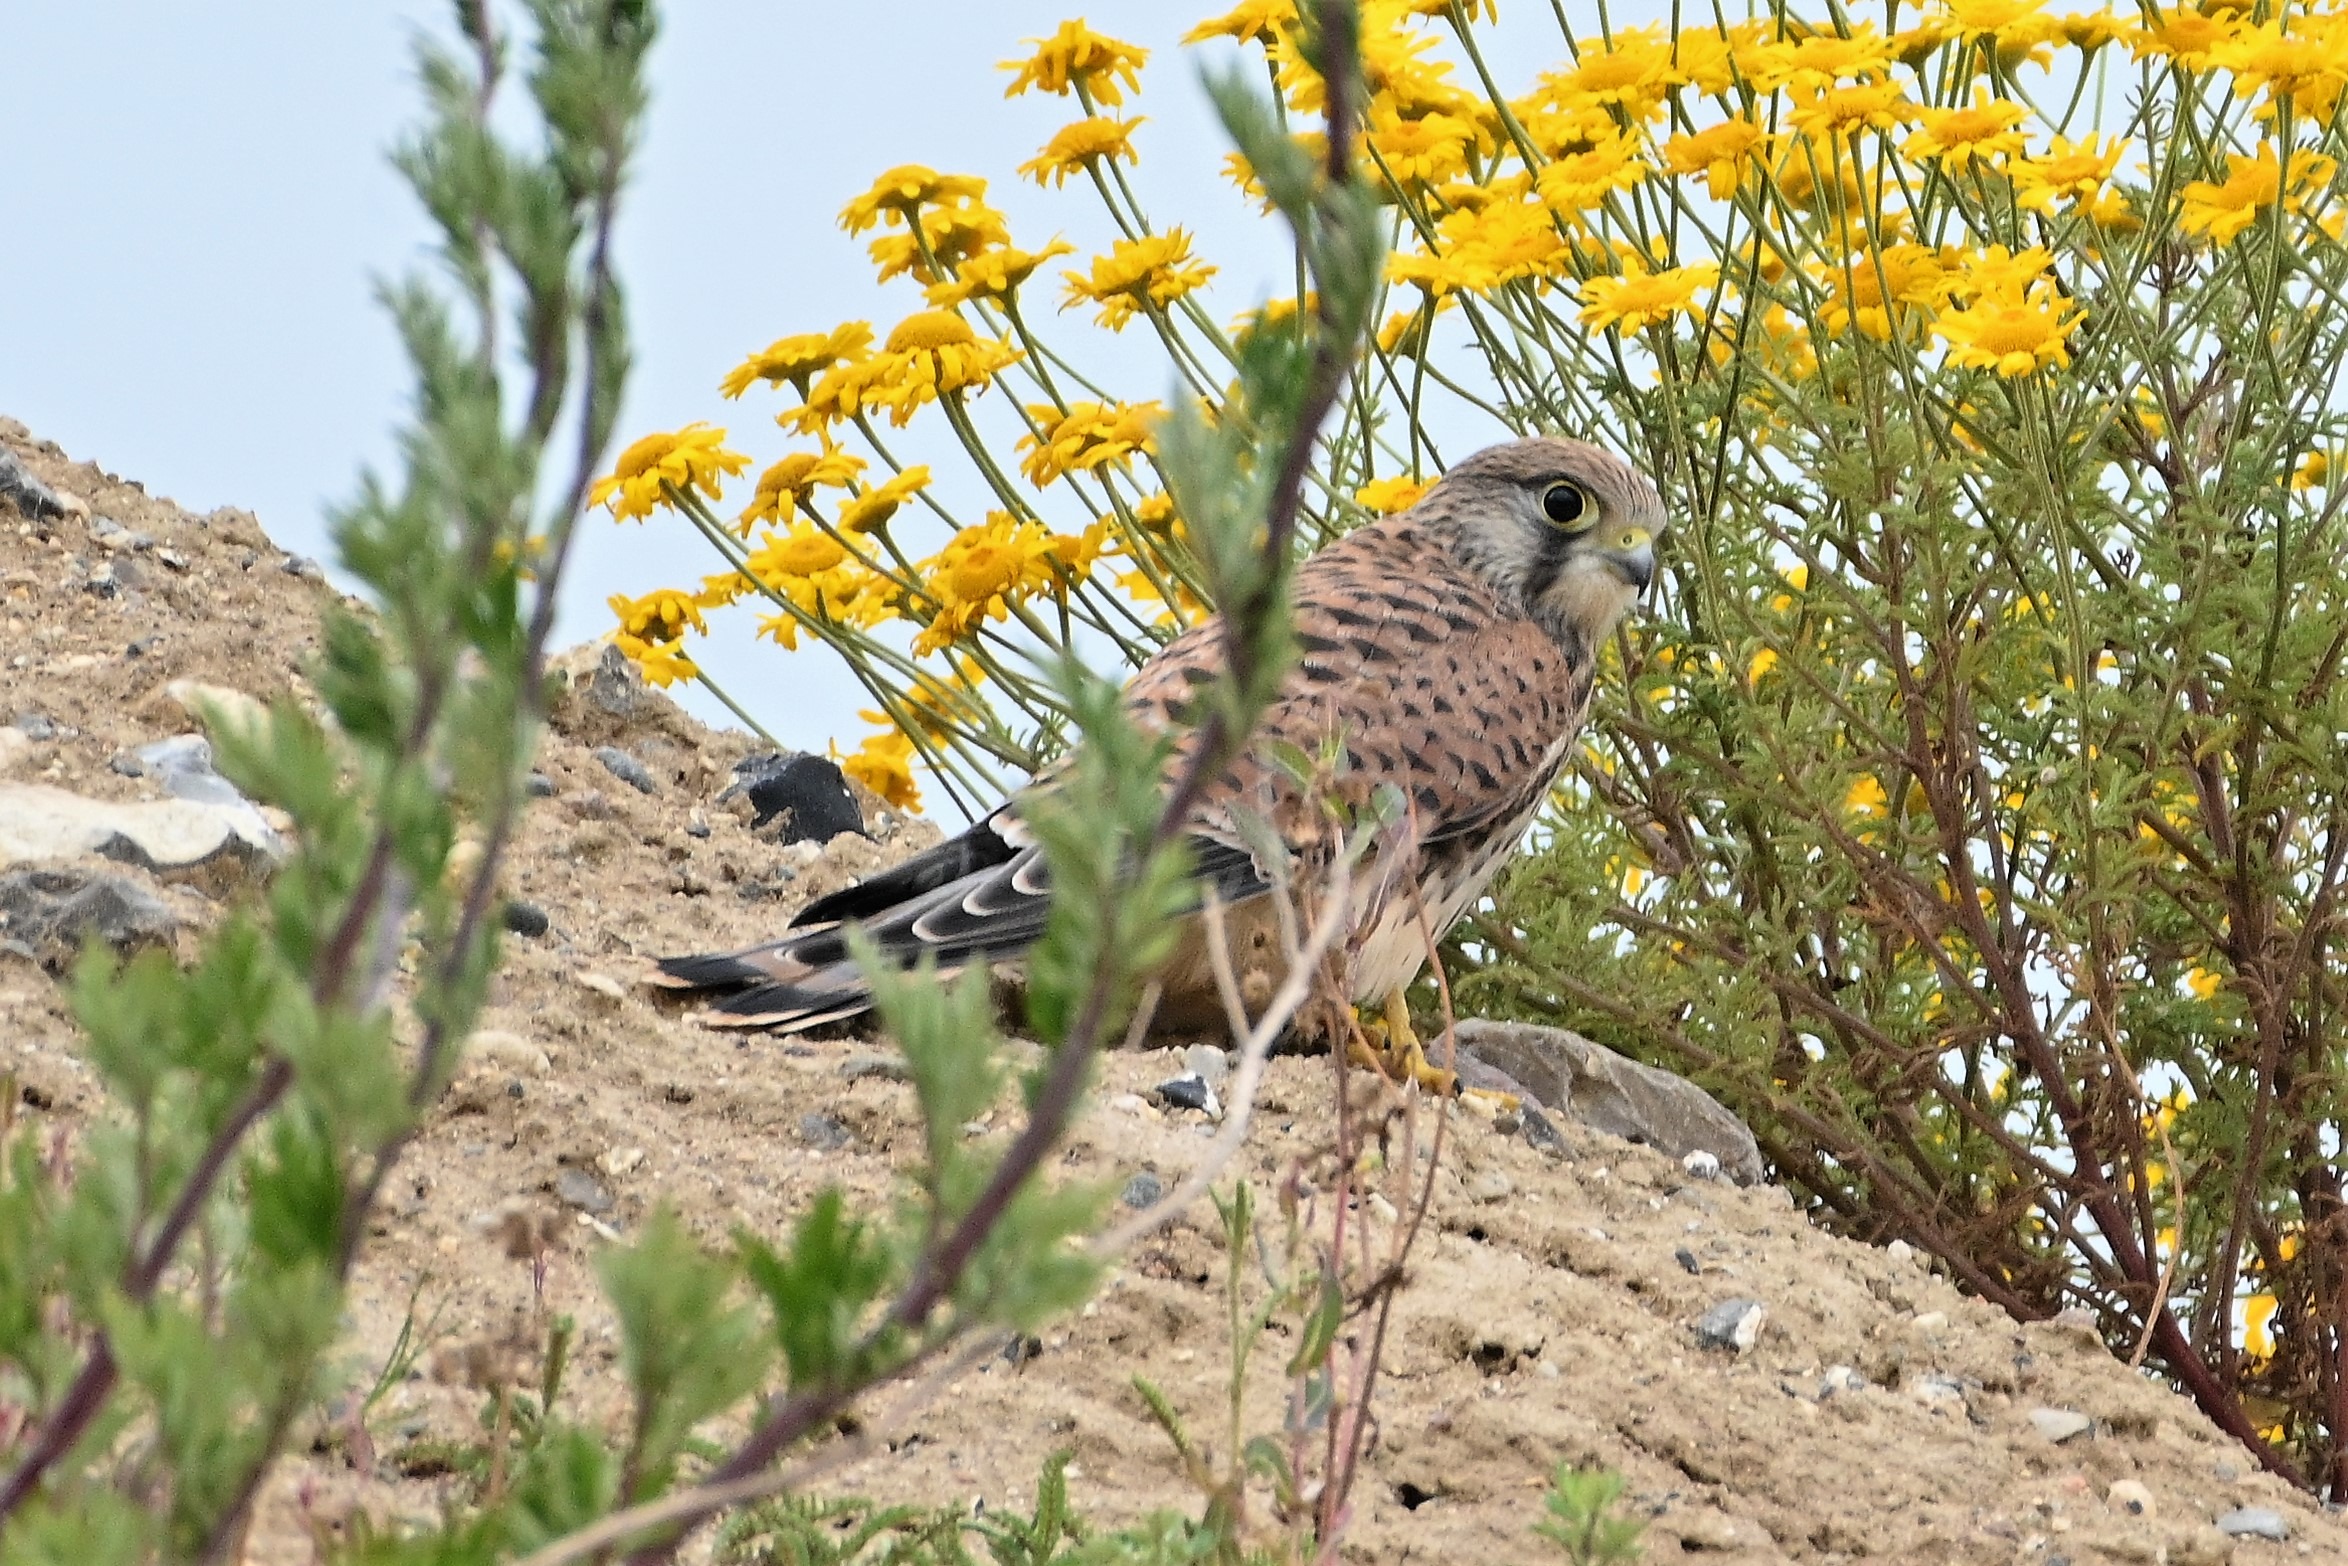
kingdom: Animalia
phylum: Chordata
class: Aves
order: Falconiformes
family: Falconidae
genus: Falco
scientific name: Falco tinnunculus
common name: Tårnfalk
